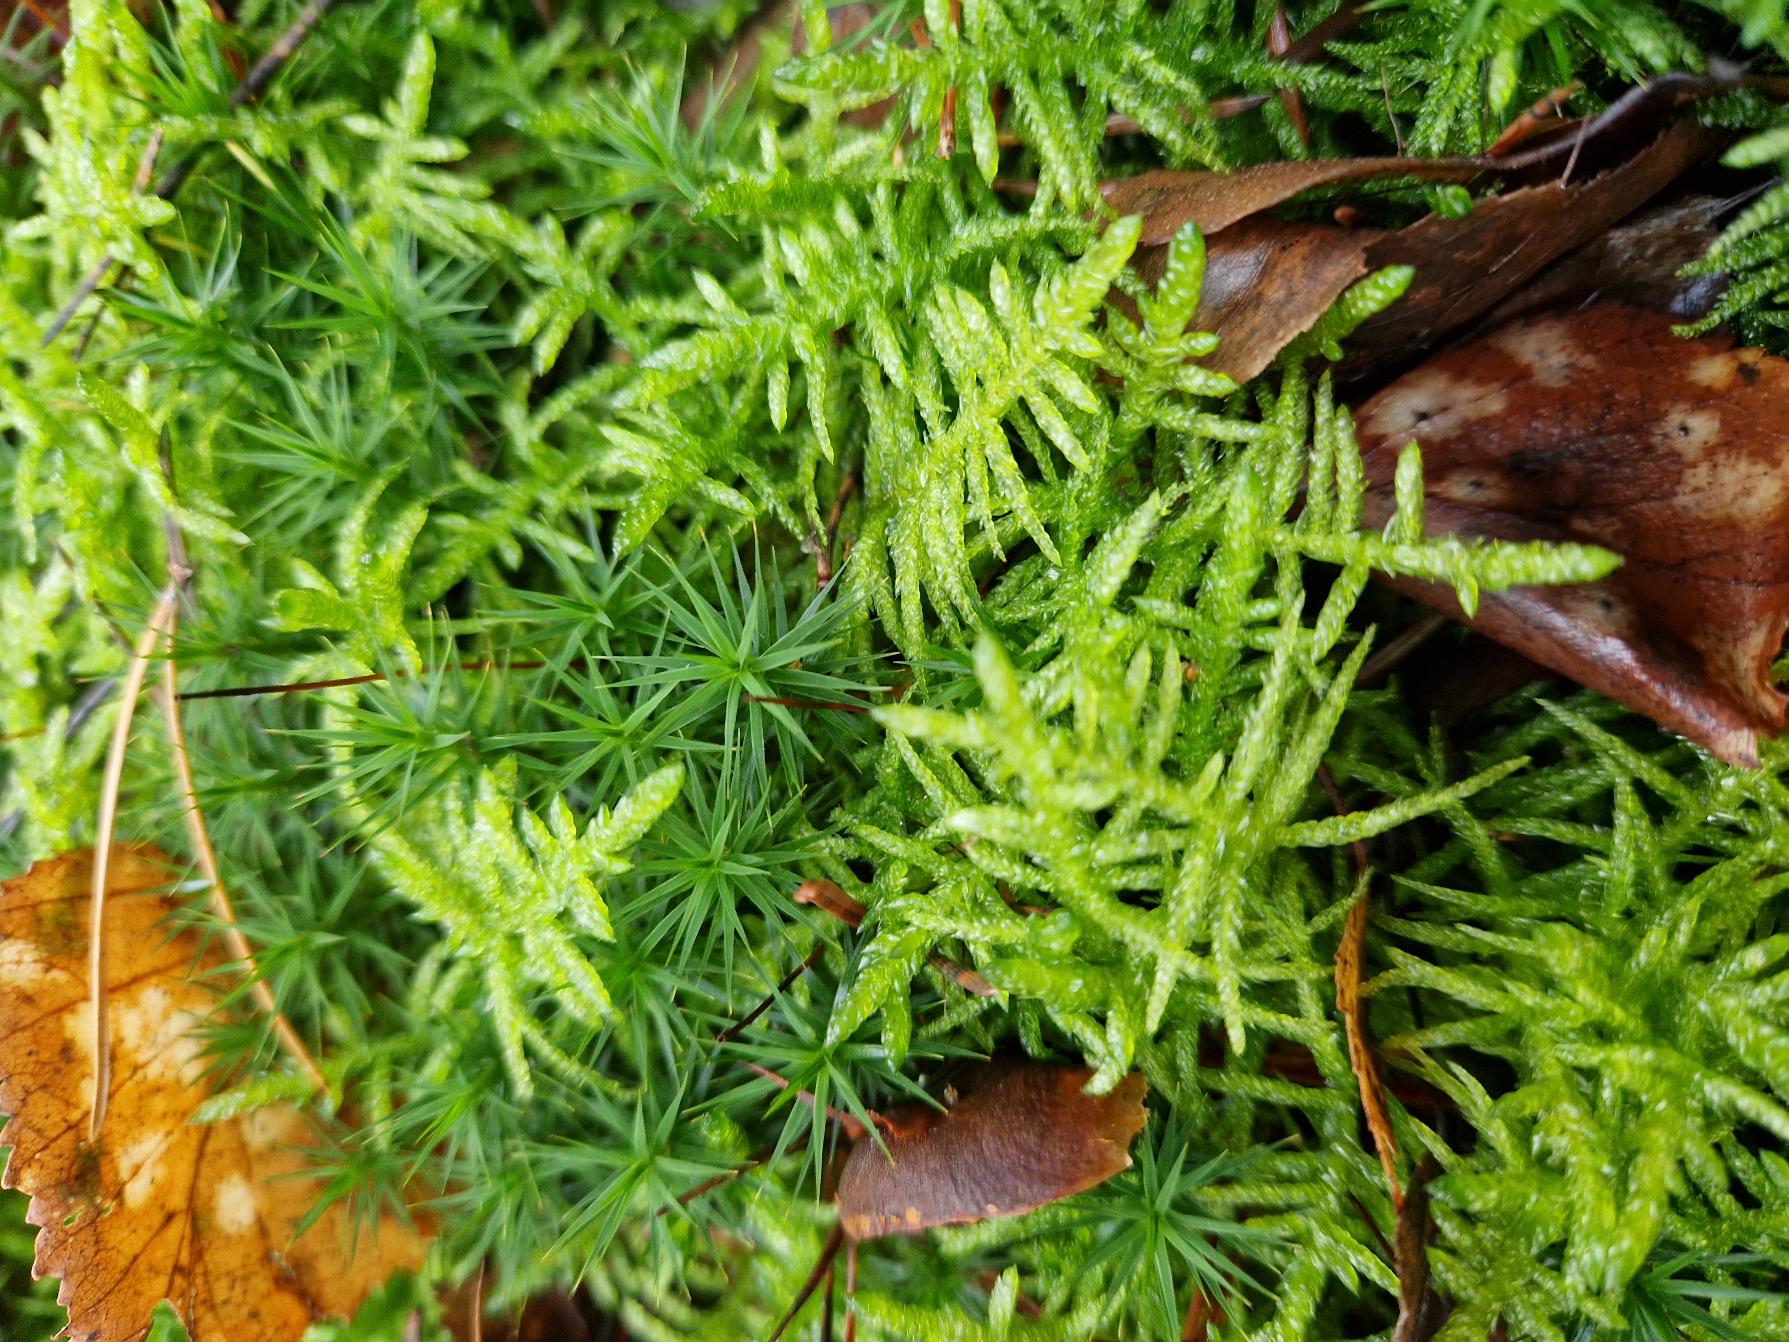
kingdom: Plantae
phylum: Bryophyta
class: Bryopsida
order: Hypnales
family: Brachytheciaceae
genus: Pseudoscleropodium
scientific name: Pseudoscleropodium purum
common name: Hulbladet fedtmos
